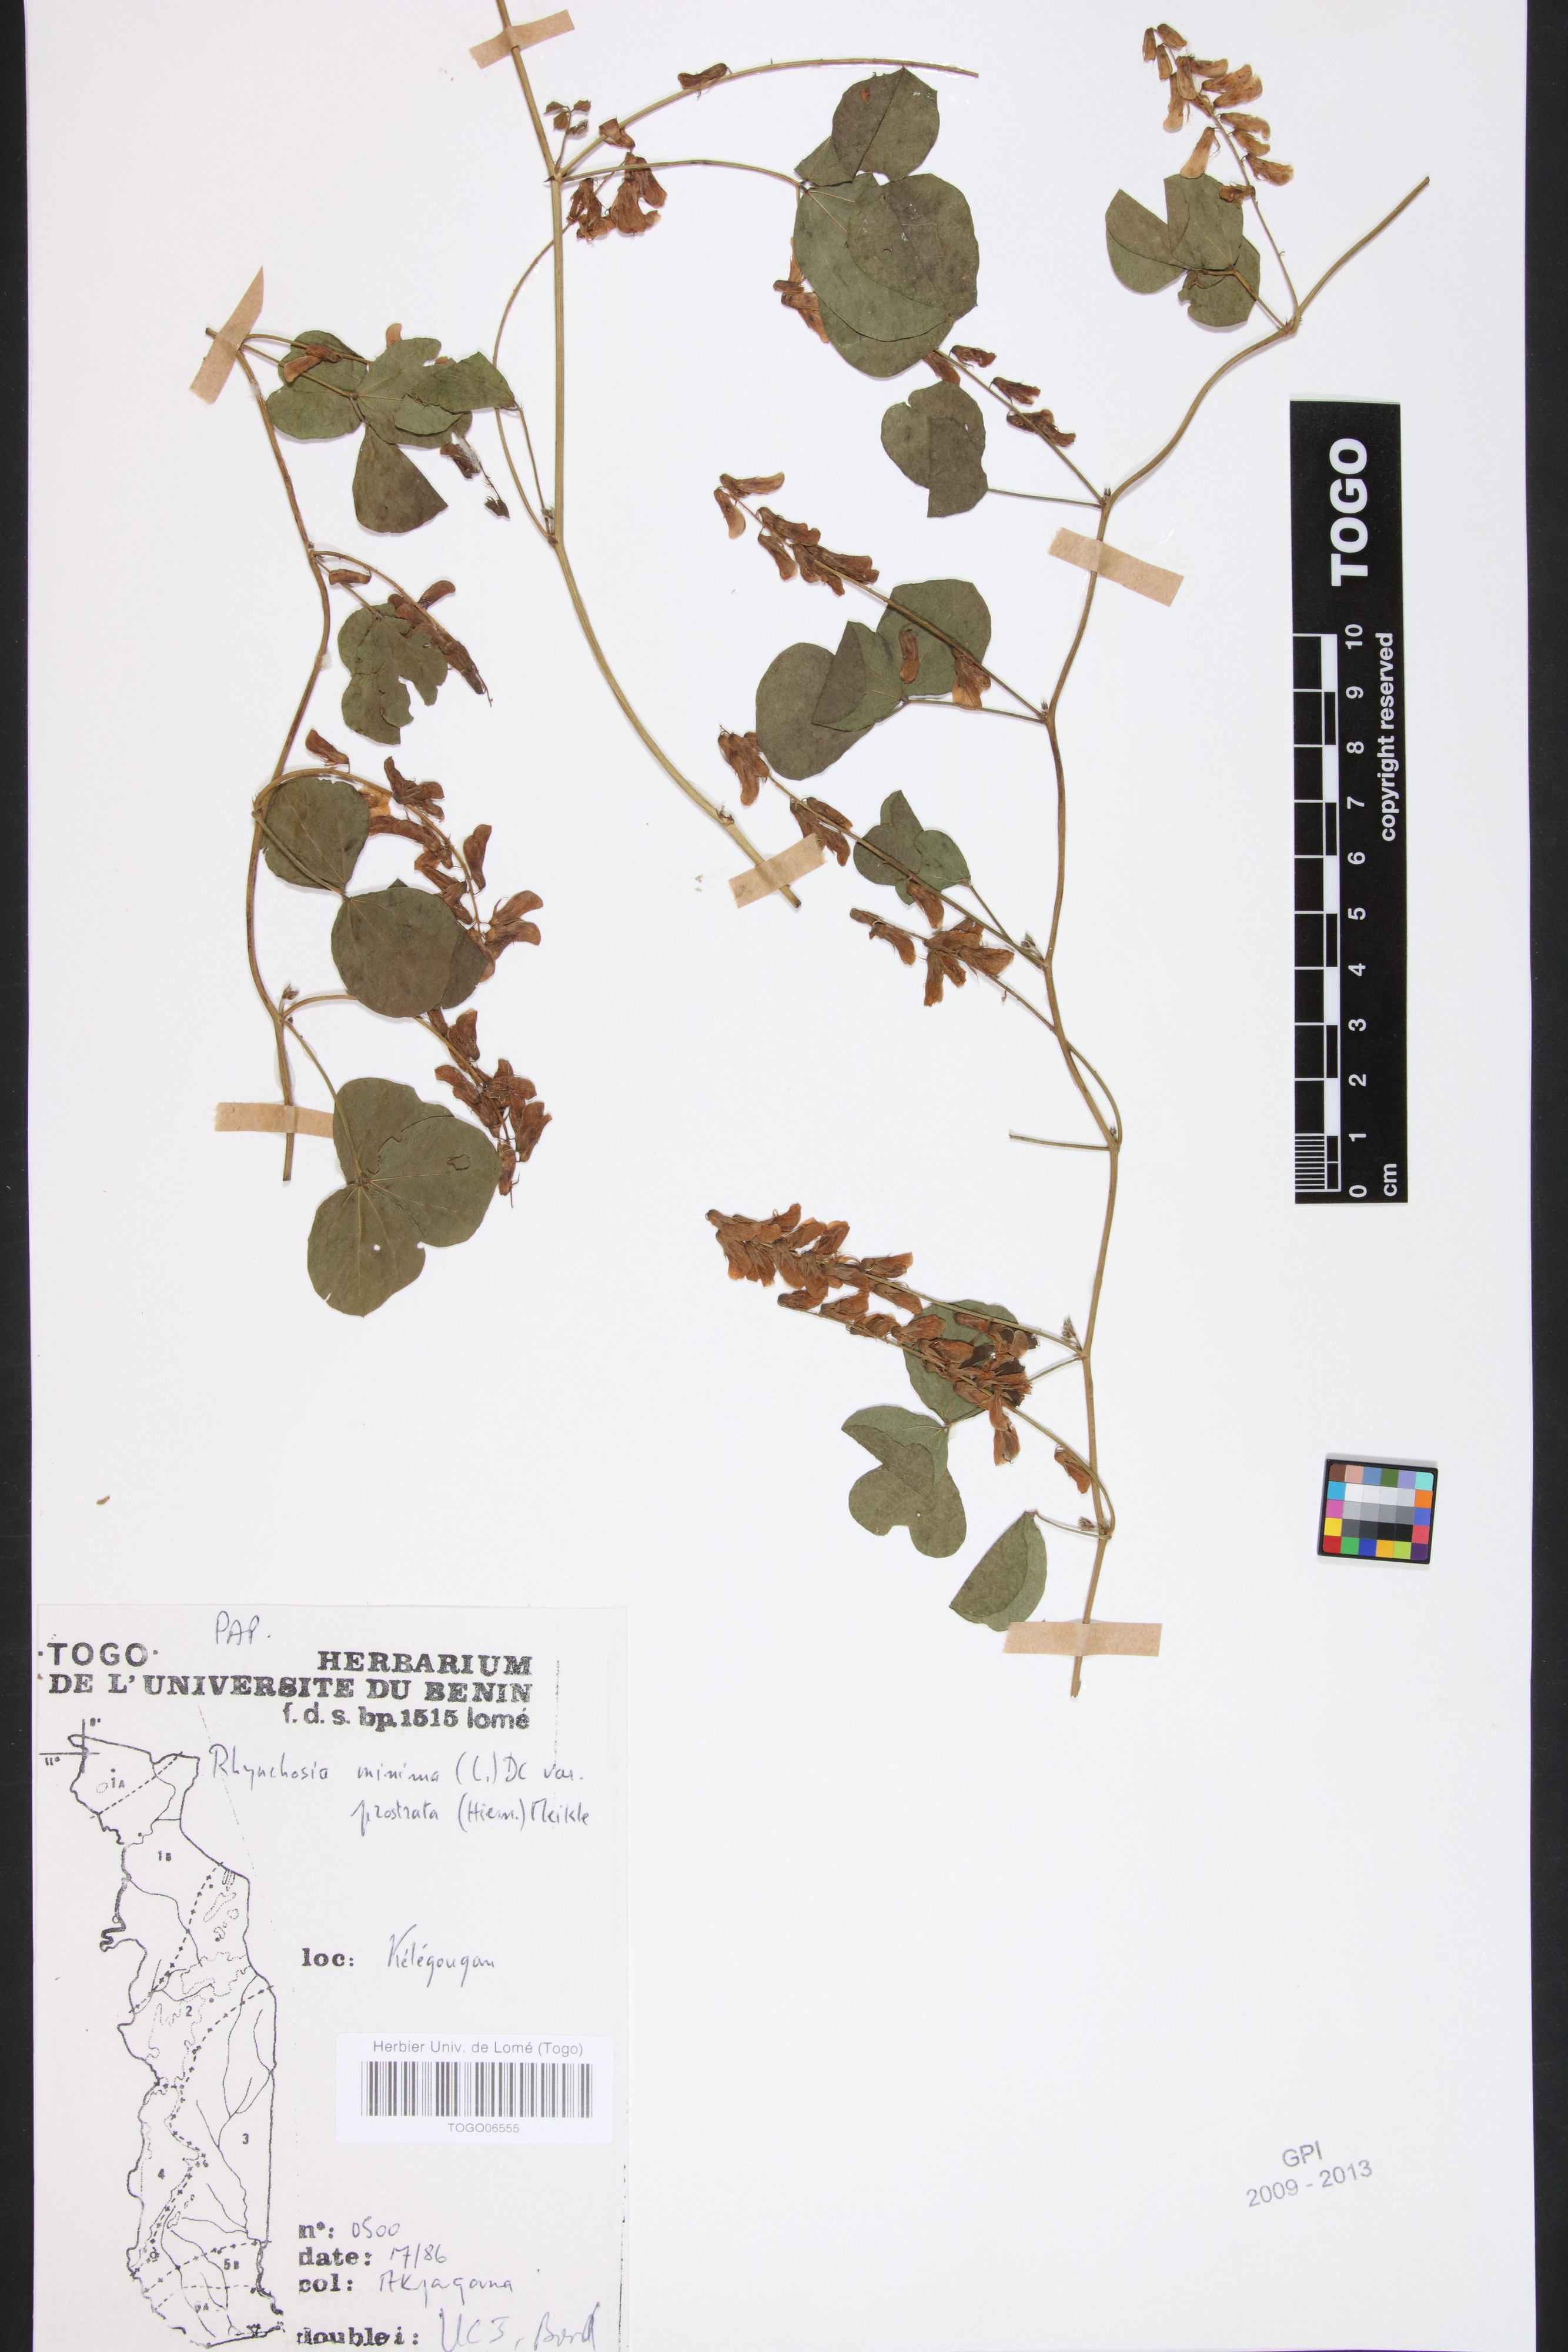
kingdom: Plantae
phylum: Tracheophyta
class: Magnoliopsida
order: Fabales
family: Fabaceae
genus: Rhynchosia
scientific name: Rhynchosia minima
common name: Least snoutbean
